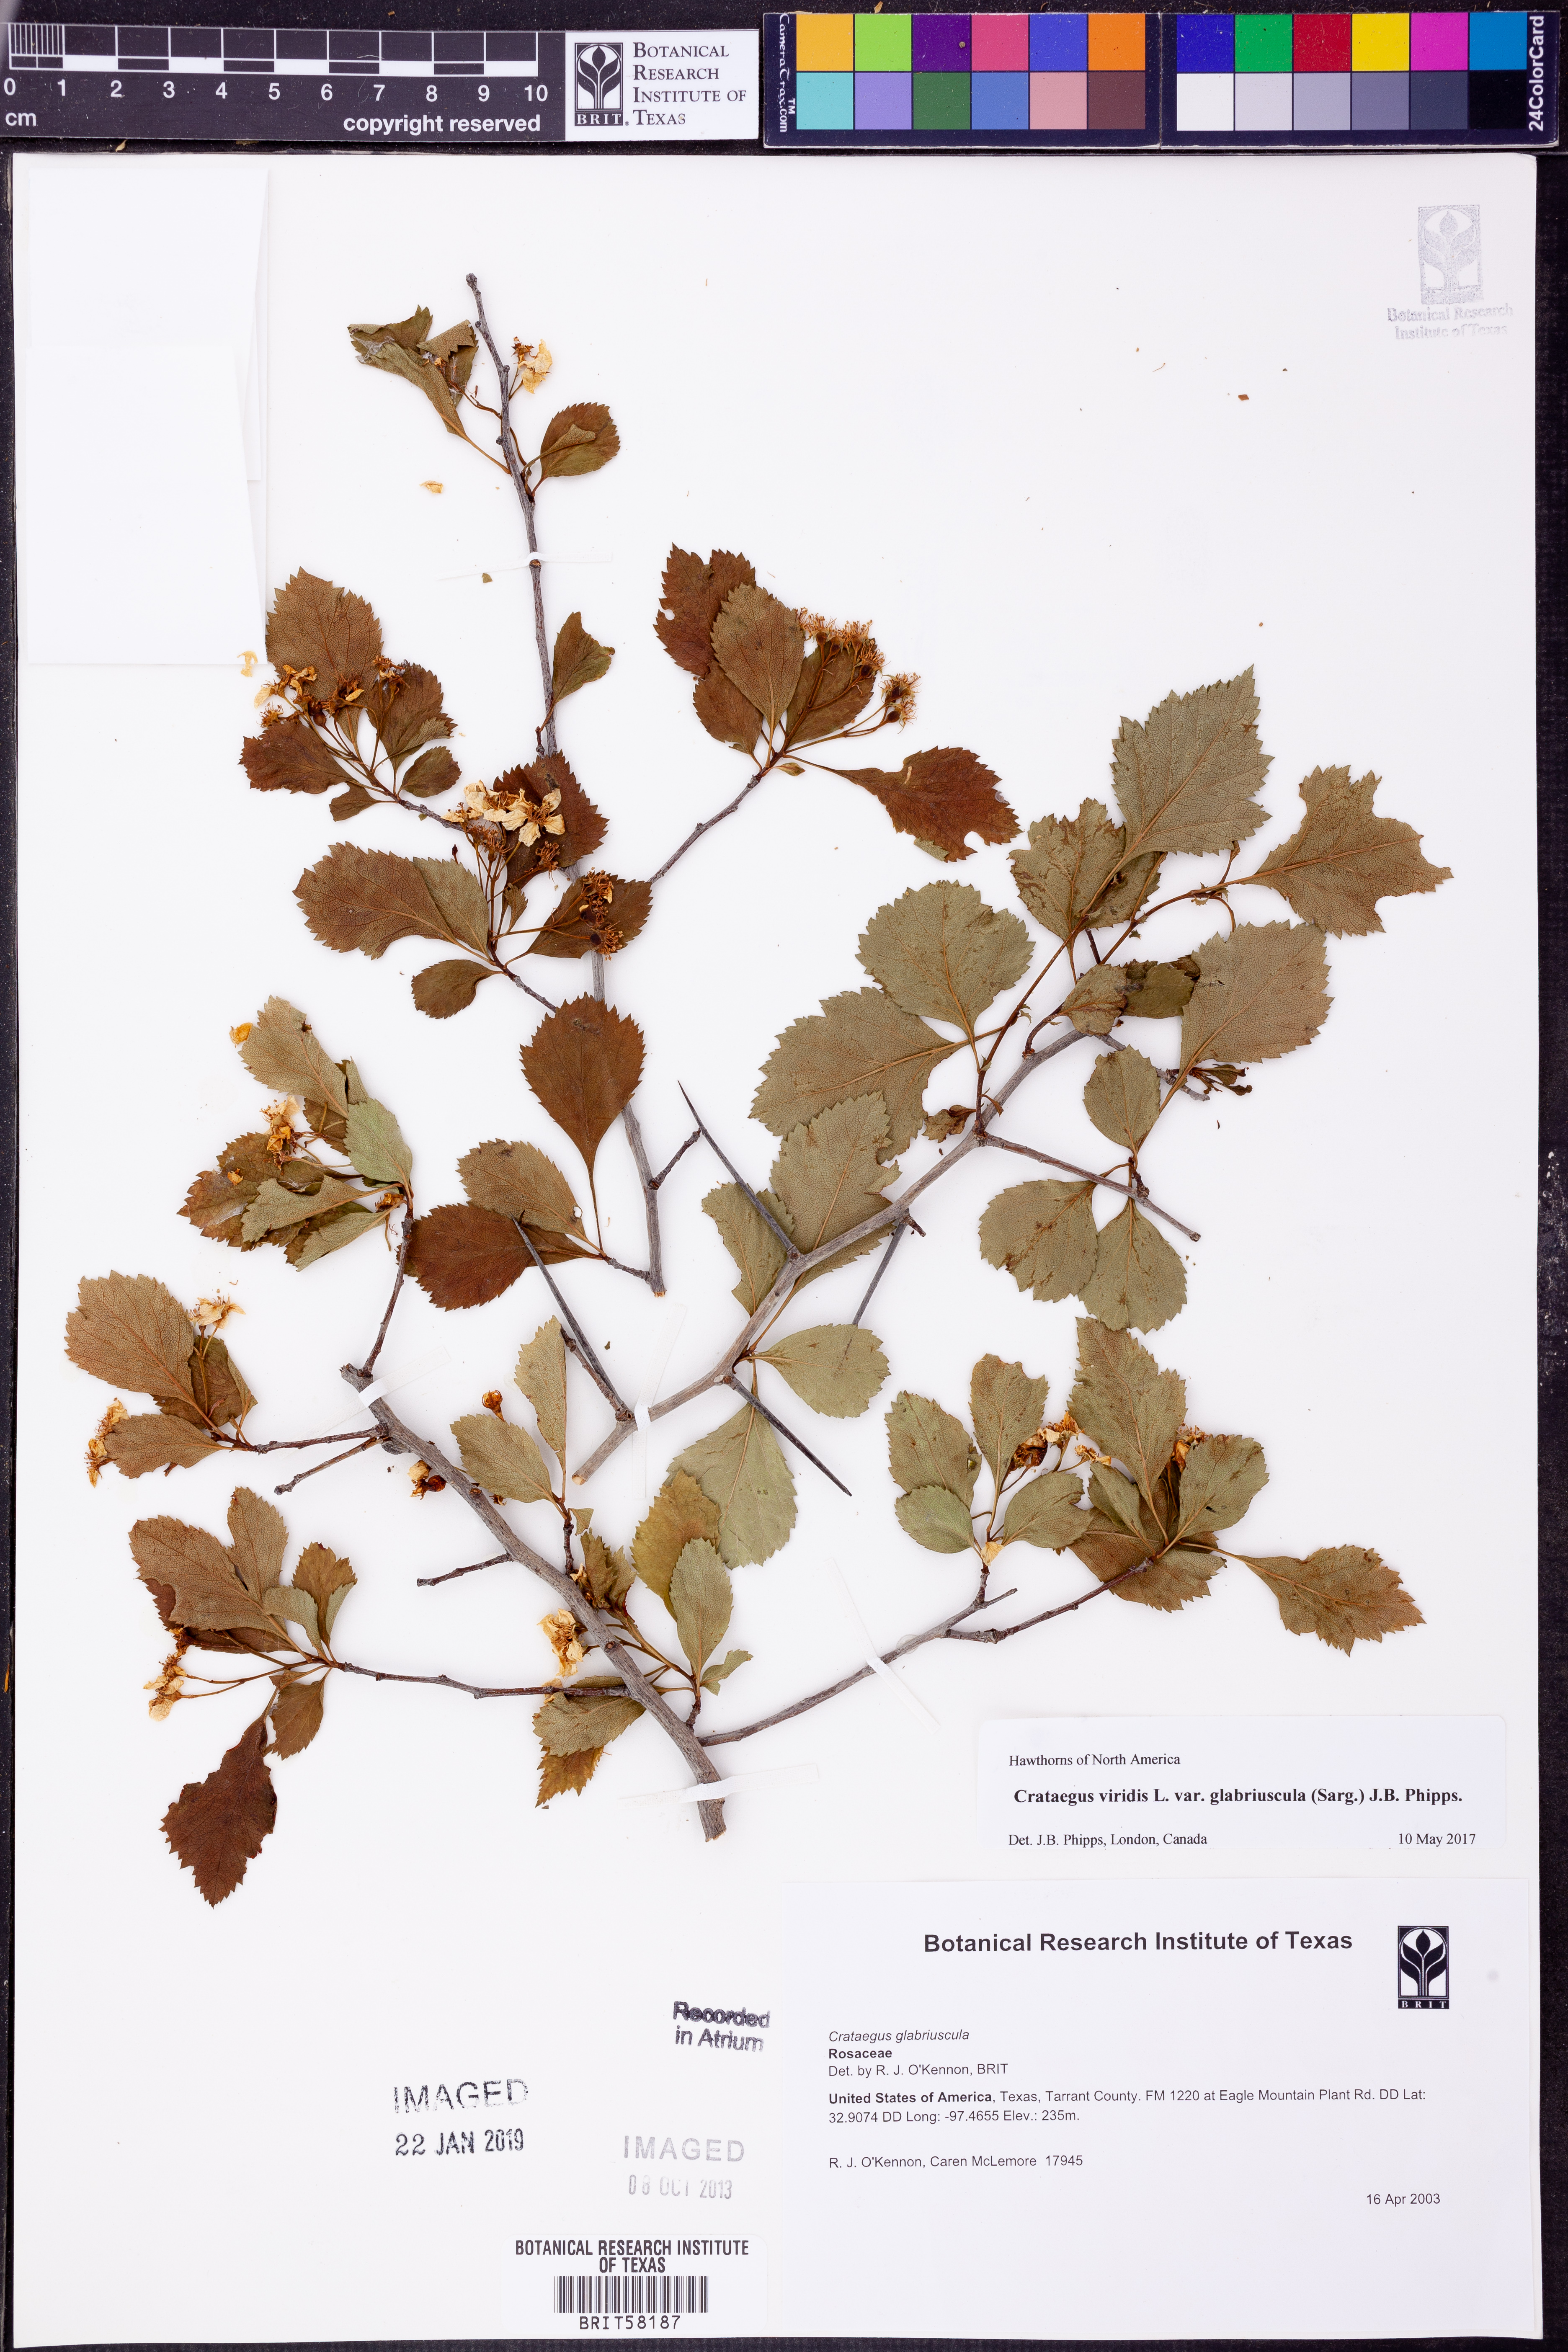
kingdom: Plantae
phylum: Tracheophyta
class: Magnoliopsida
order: Rosales
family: Rosaceae
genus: Crataegus
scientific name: Crataegus viridis
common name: Southernthorn
